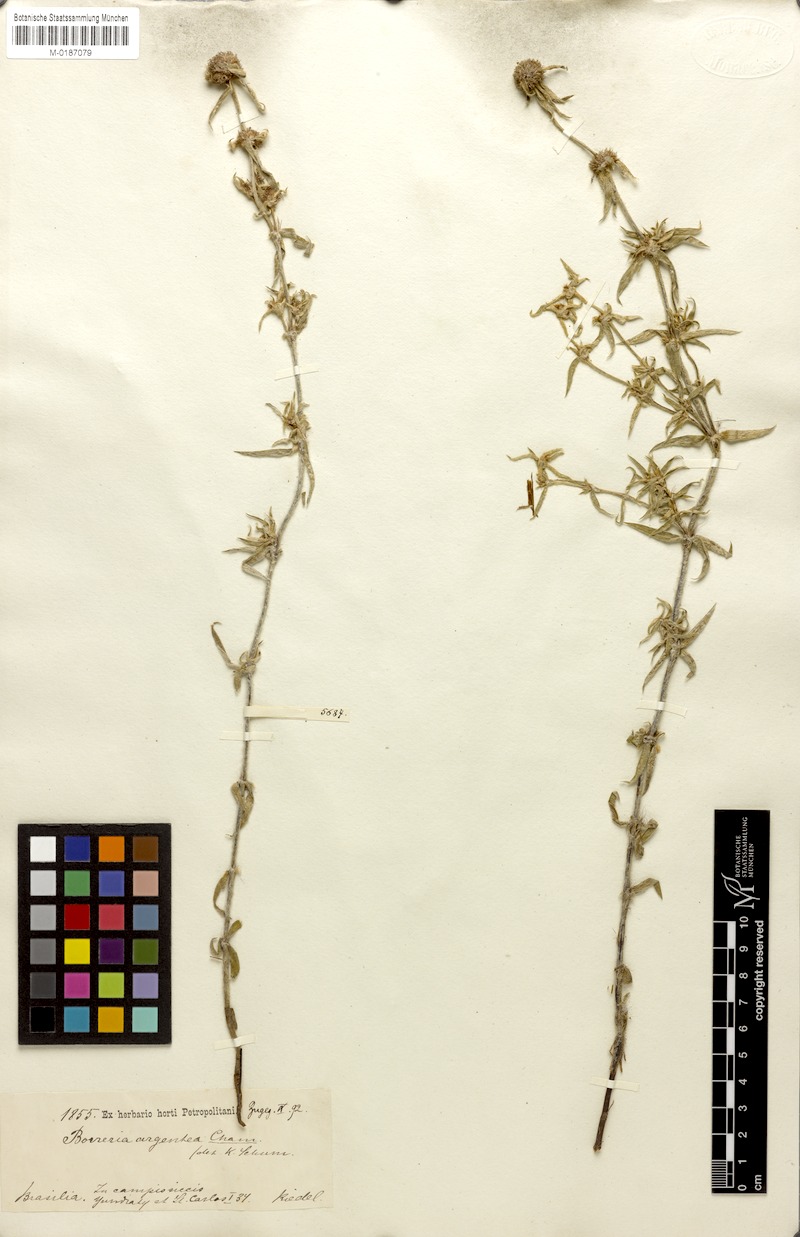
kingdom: Plantae
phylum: Tracheophyta
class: Magnoliopsida
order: Gentianales
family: Rubiaceae
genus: Spermacoce
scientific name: Spermacoce argentea
